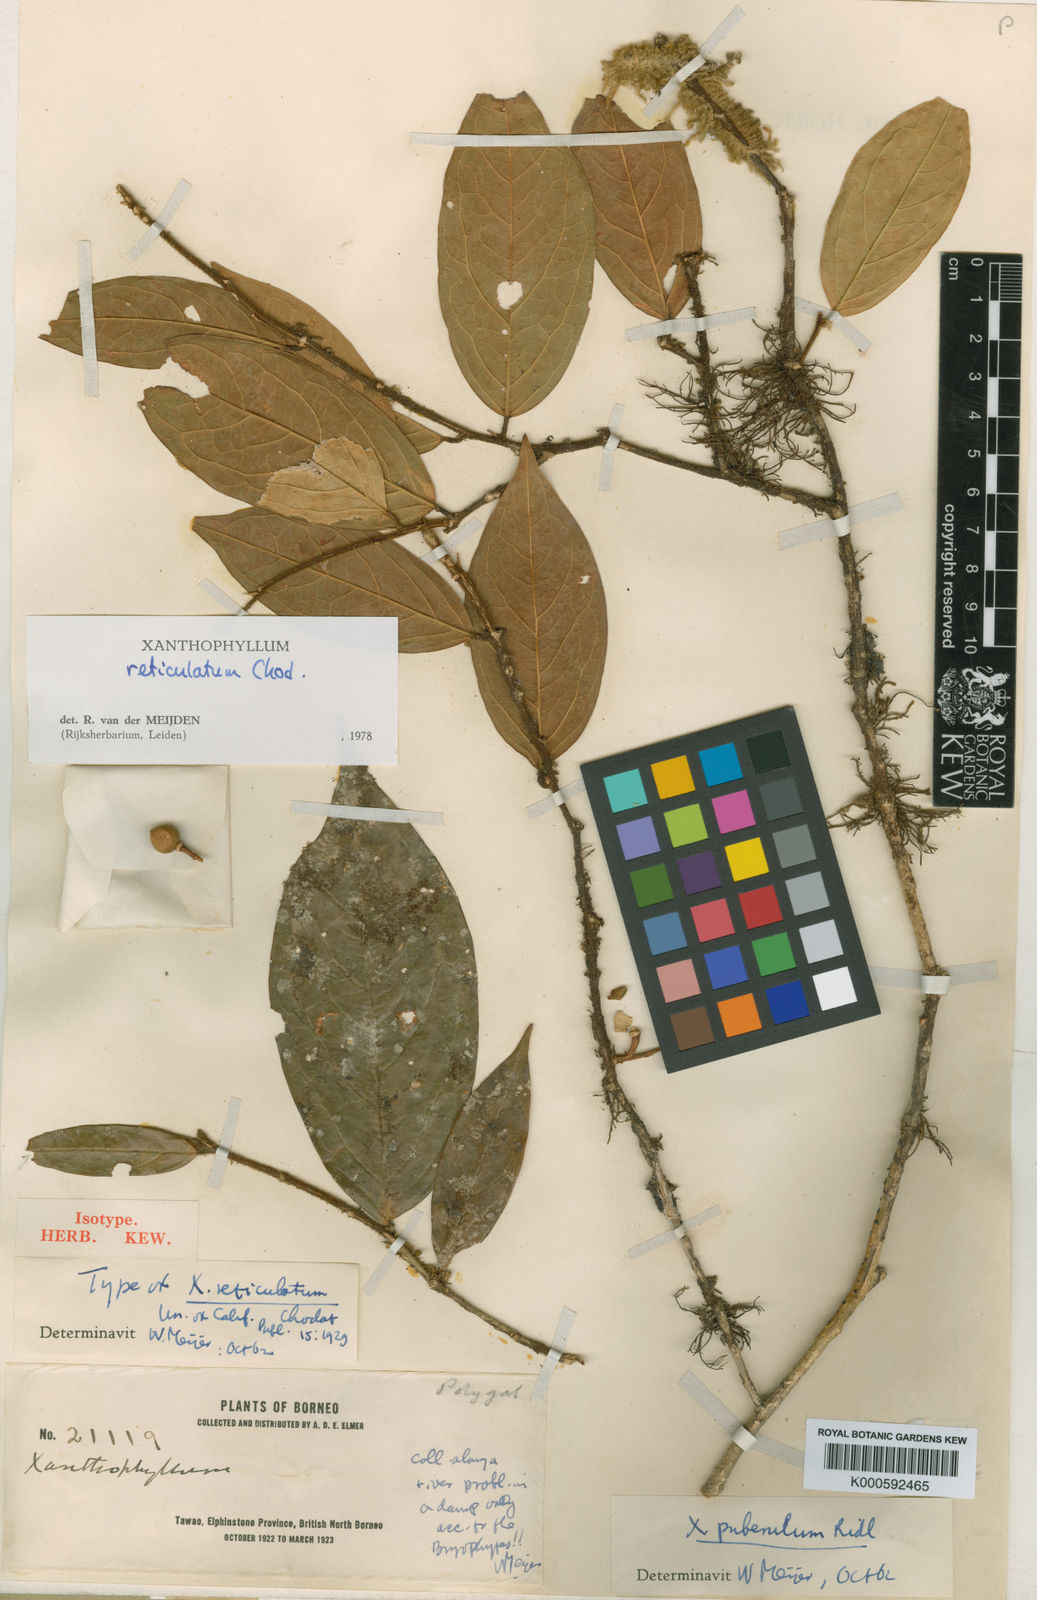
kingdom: Plantae
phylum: Tracheophyta
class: Magnoliopsida
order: Fabales
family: Polygalaceae
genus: Xanthophyllum
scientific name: Xanthophyllum reticulatum
